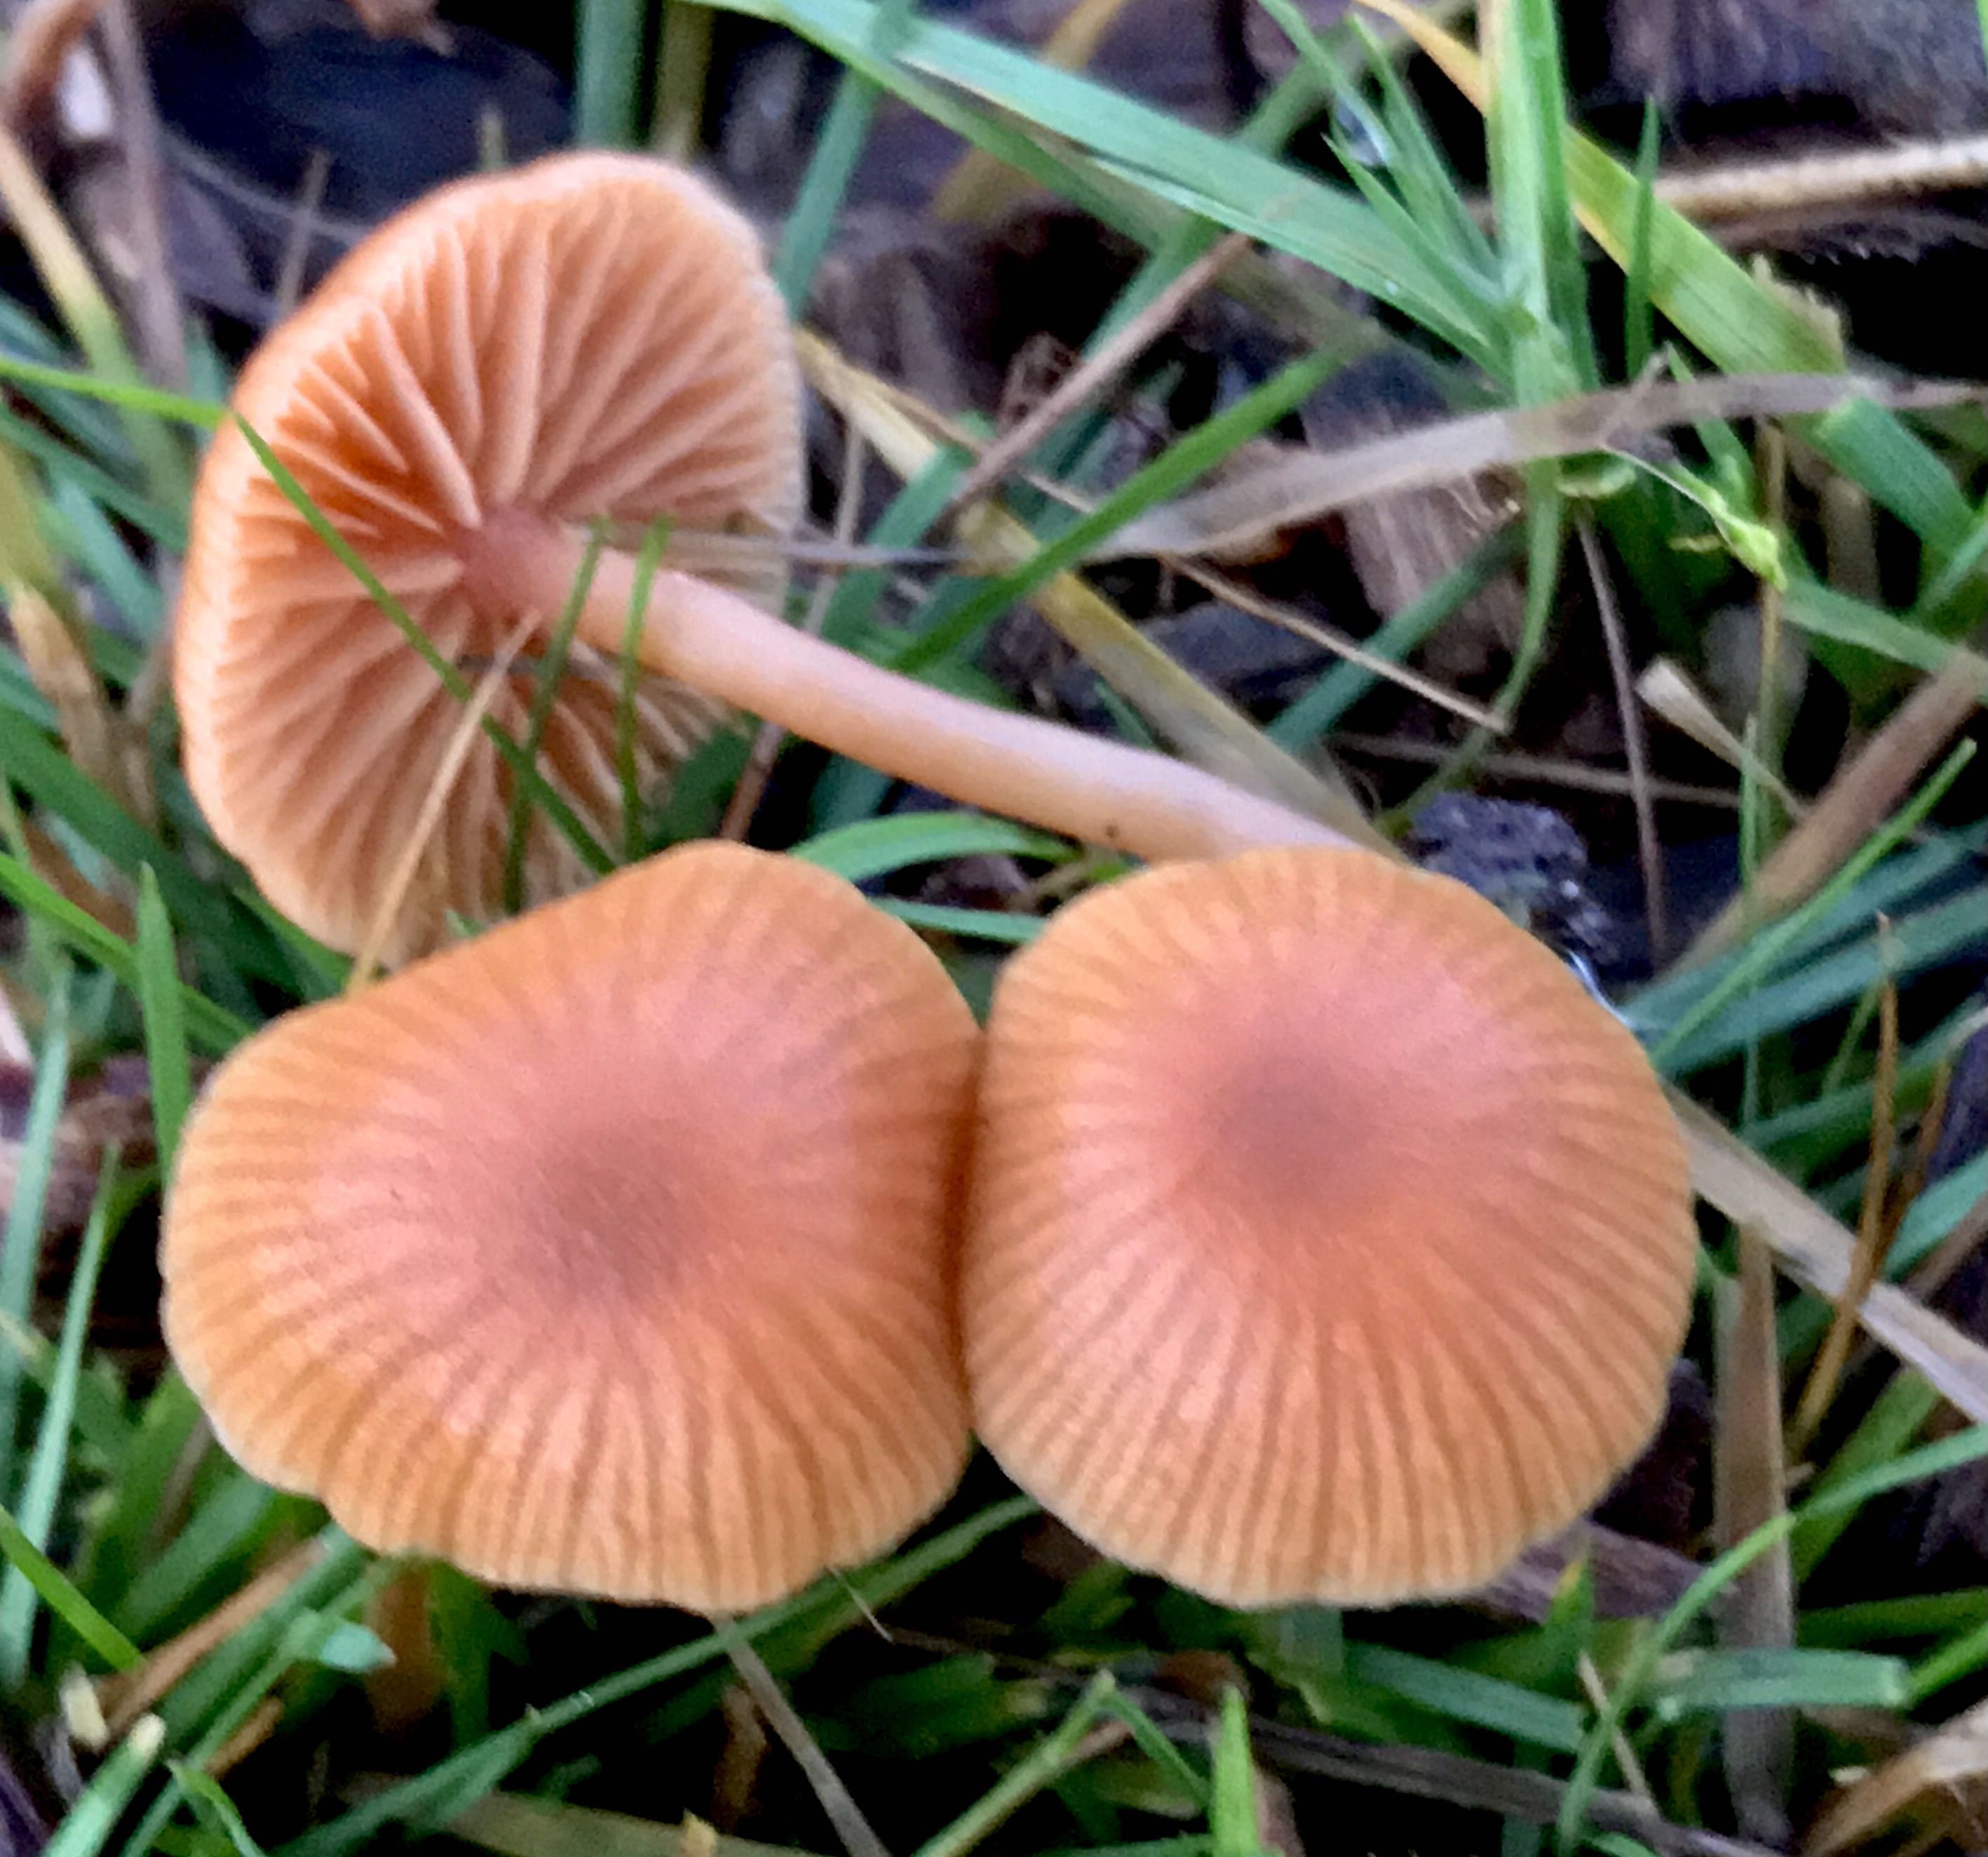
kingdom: Fungi
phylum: Basidiomycota
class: Agaricomycetes
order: Agaricales
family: Tubariaceae
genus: Tubaria
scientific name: Tubaria furfuracea
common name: kliddet fnughat
